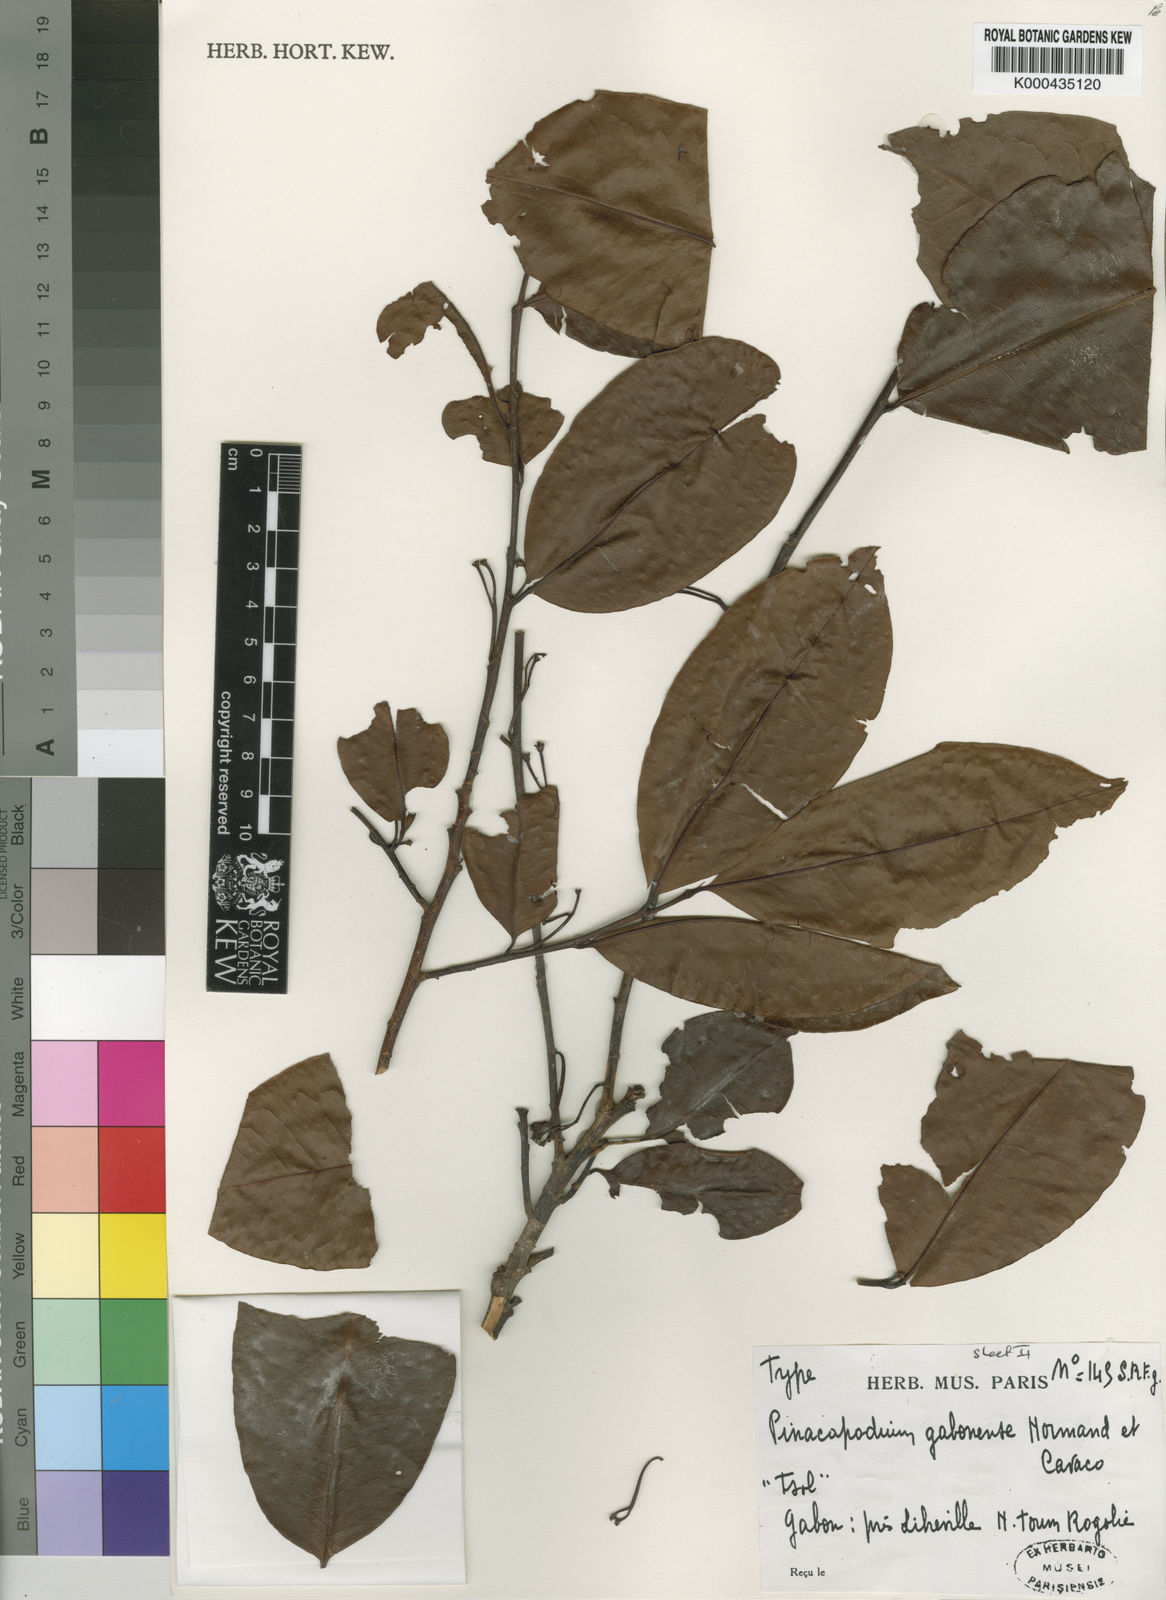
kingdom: Plantae
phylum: Tracheophyta
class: Magnoliopsida
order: Malpighiales
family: Erythroxylaceae
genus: Pinacopodium
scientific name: Pinacopodium gabonense
